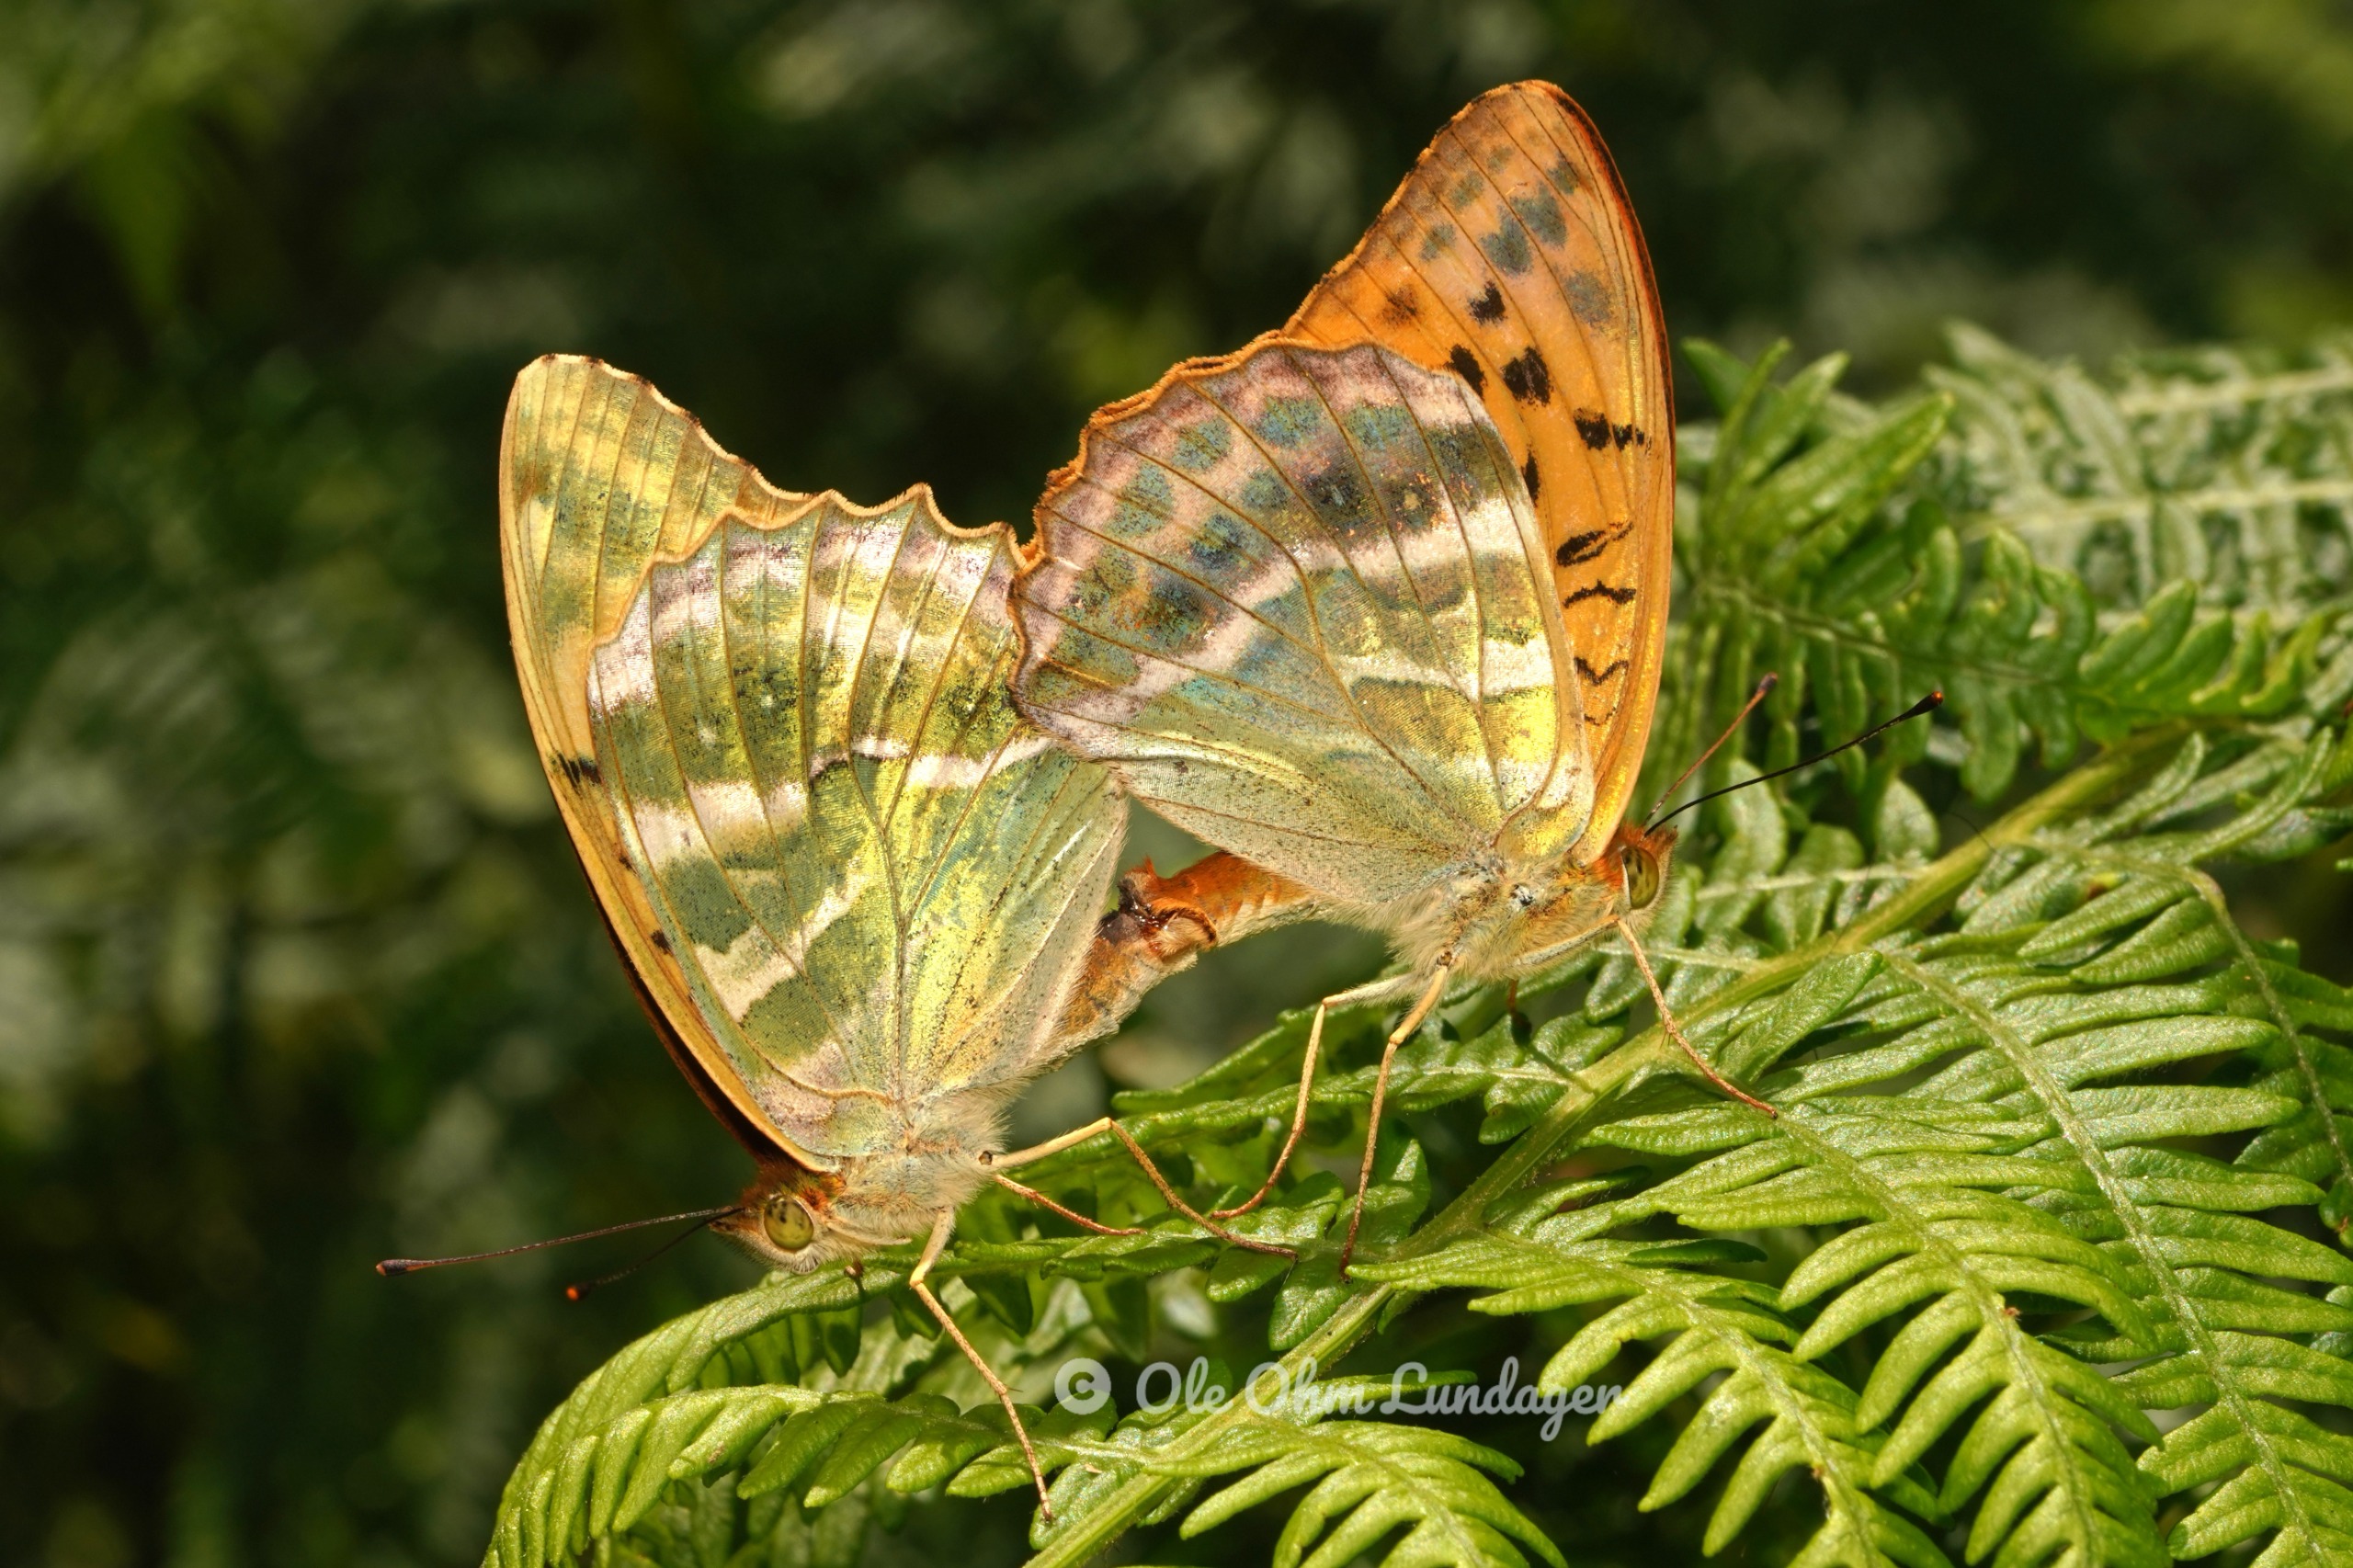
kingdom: Animalia
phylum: Arthropoda
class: Insecta
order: Lepidoptera
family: Nymphalidae
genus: Argynnis
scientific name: Argynnis paphia
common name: Kejserkåbe
